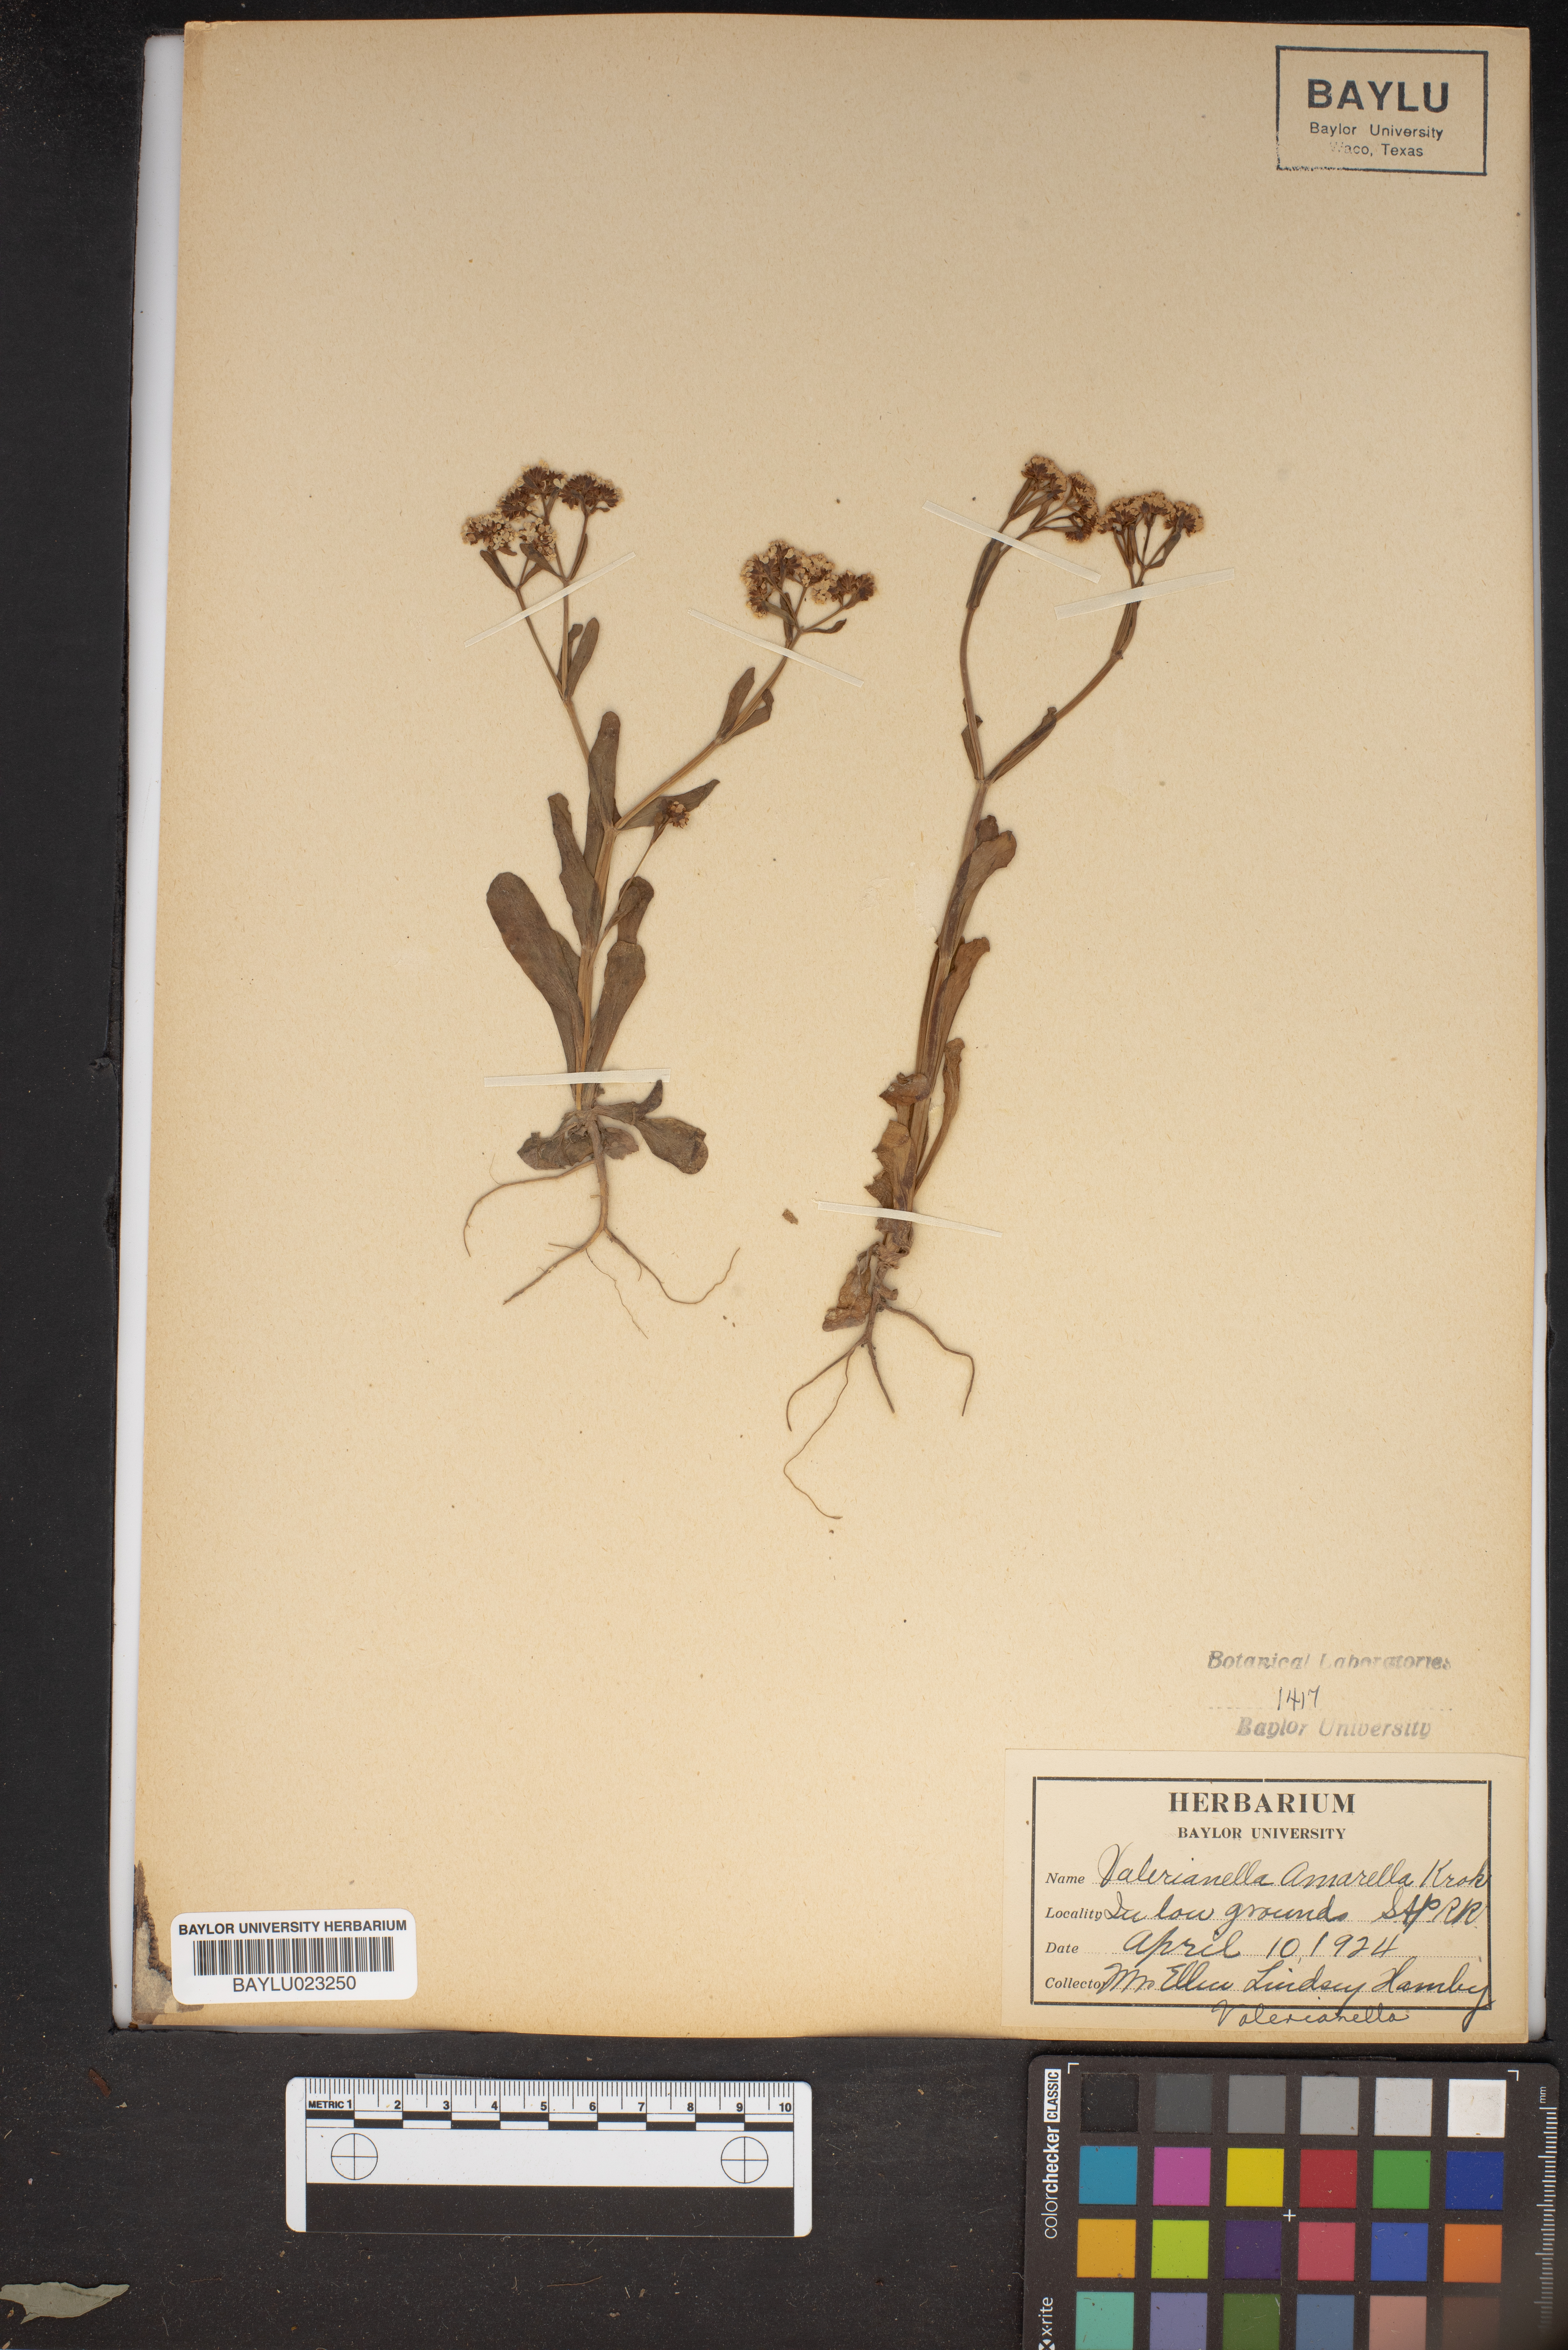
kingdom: Plantae
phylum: Tracheophyta
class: Magnoliopsida
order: Dipsacales
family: Caprifoliaceae
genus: Valerianella
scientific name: Valerianella amarella
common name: Hariy cornsalad
